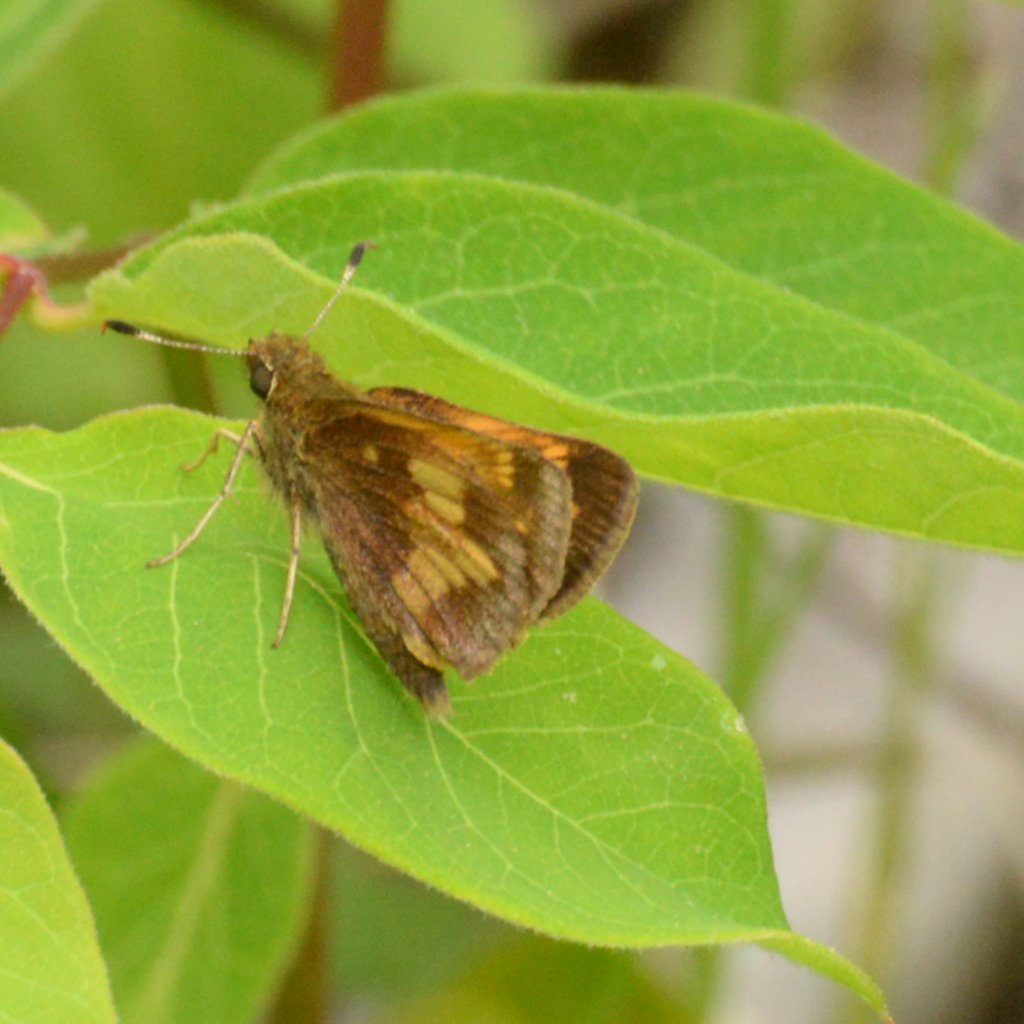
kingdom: Animalia
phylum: Arthropoda
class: Insecta
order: Lepidoptera
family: Hesperiidae
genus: Lon
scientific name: Lon hobomok
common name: Hobomok Skipper
